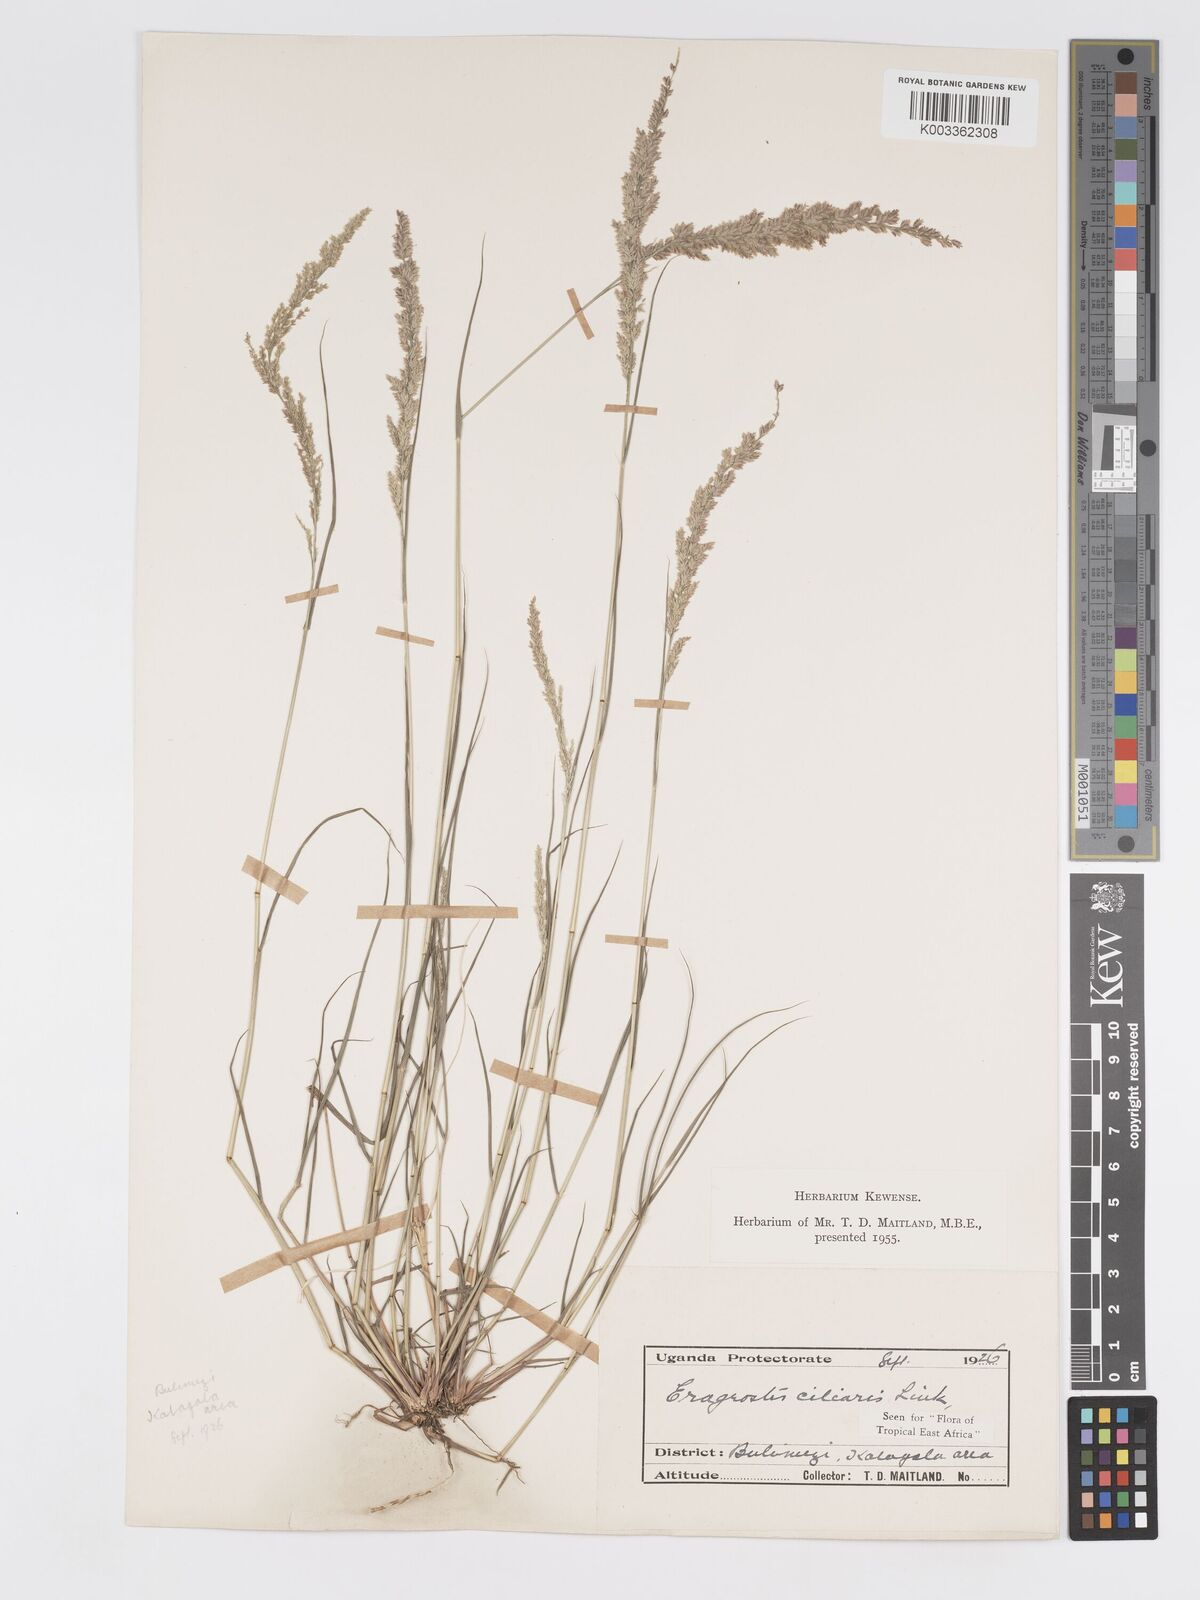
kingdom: Plantae
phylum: Tracheophyta
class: Liliopsida
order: Poales
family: Poaceae
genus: Eragrostis
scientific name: Eragrostis ciliaris
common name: Gophertail lovegrass
